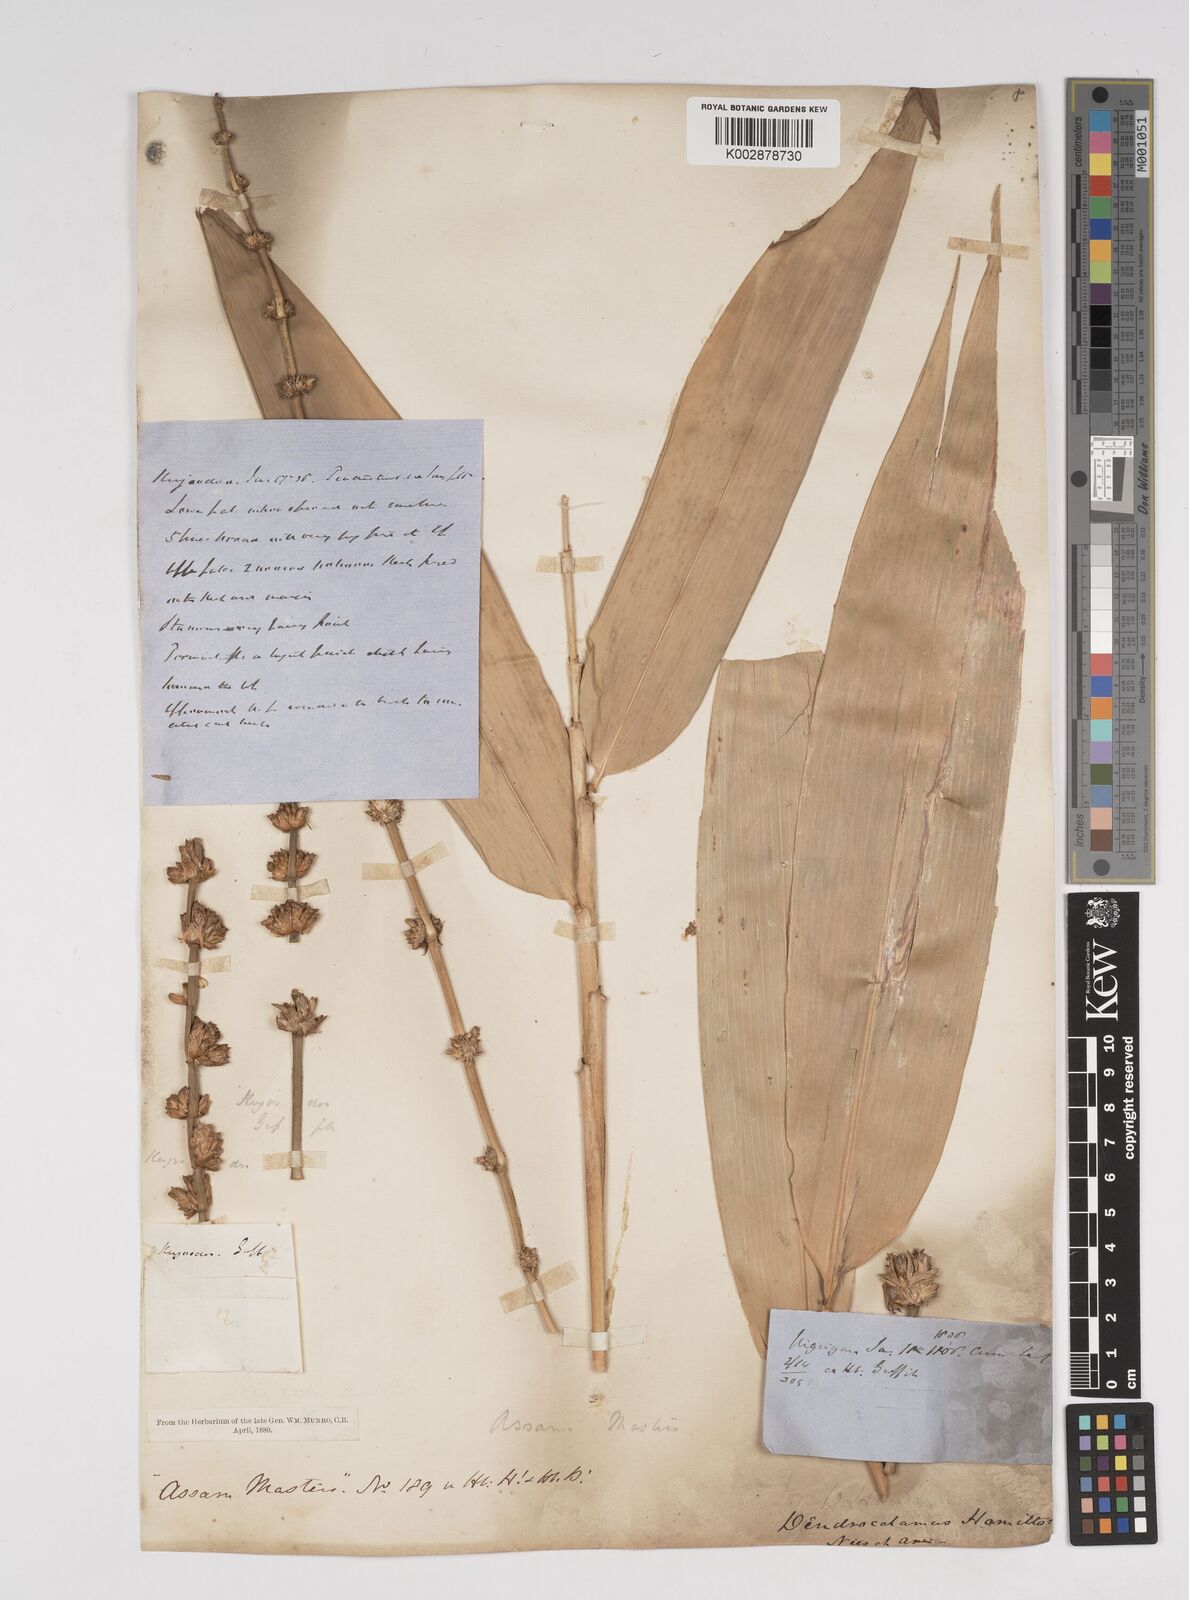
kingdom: Plantae
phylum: Tracheophyta
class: Liliopsida
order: Poales
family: Poaceae
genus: Dendrocalamus
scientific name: Dendrocalamus hamiltonii
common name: Tama bamboo
